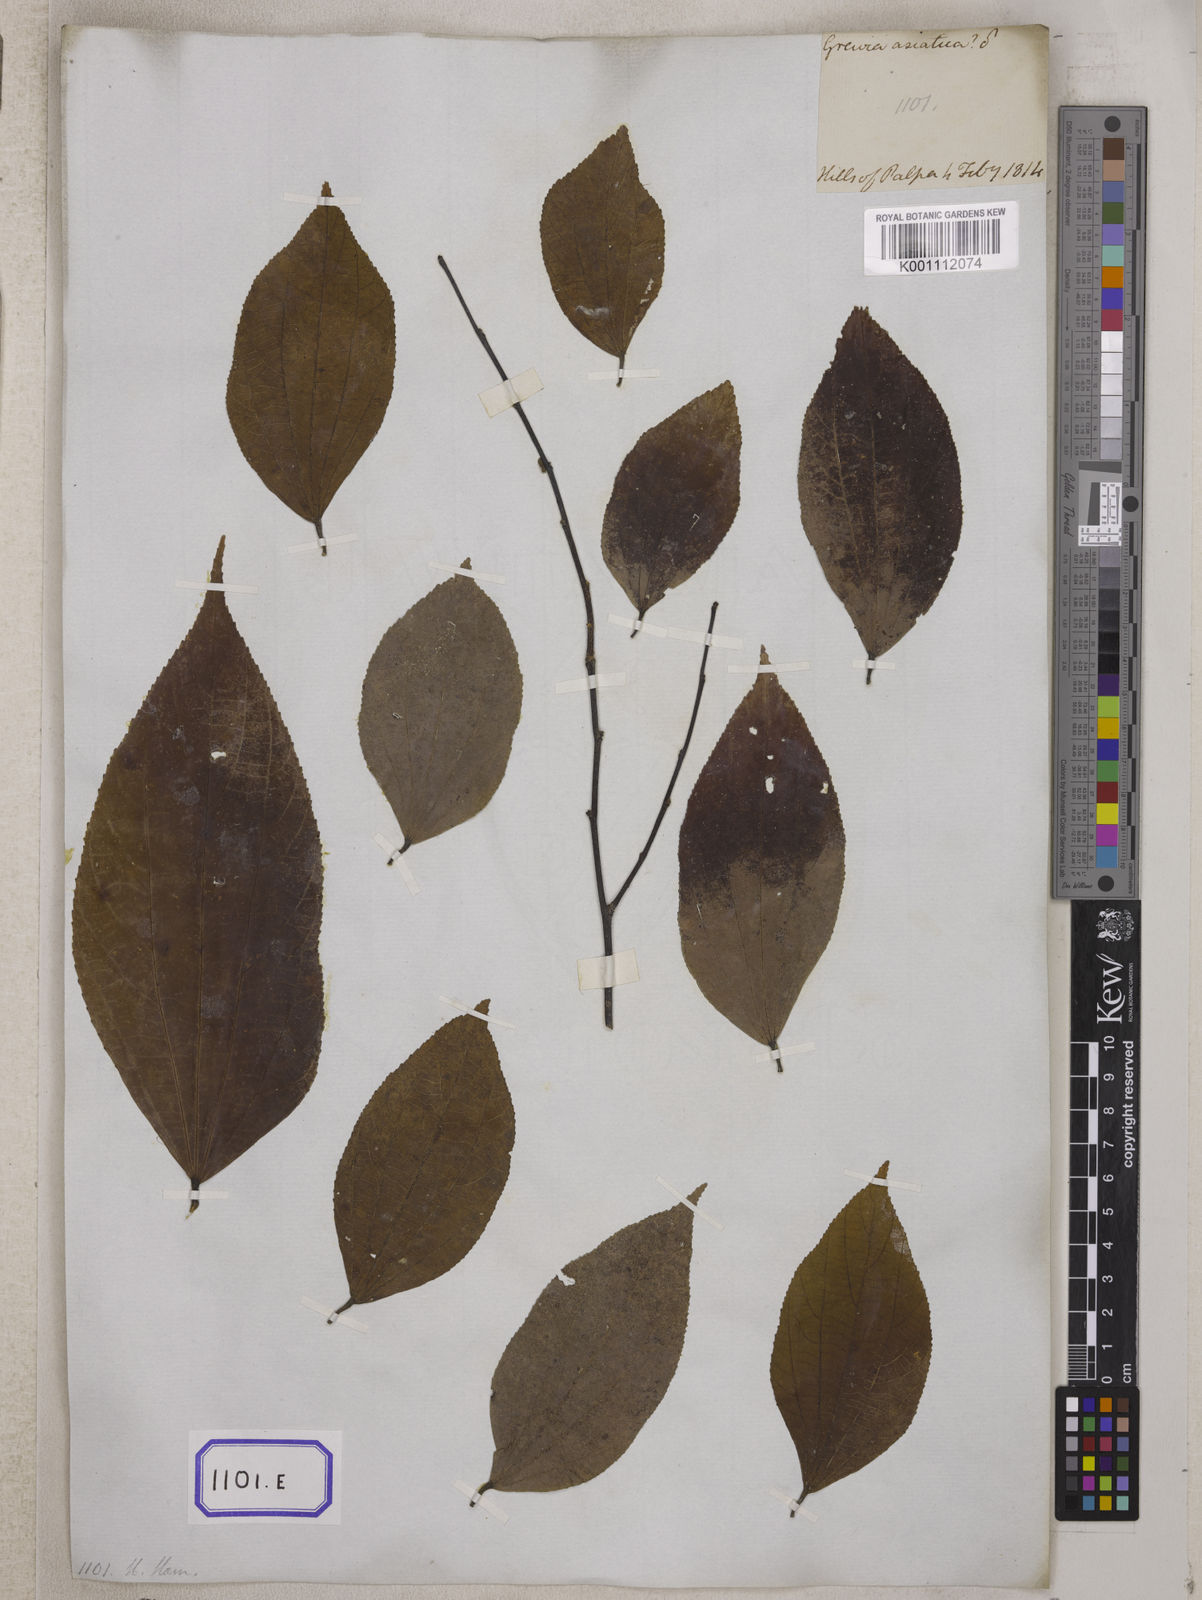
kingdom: Plantae
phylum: Tracheophyta
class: Magnoliopsida
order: Malvales
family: Malvaceae
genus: Grewia
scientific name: Grewia oppositifolia
